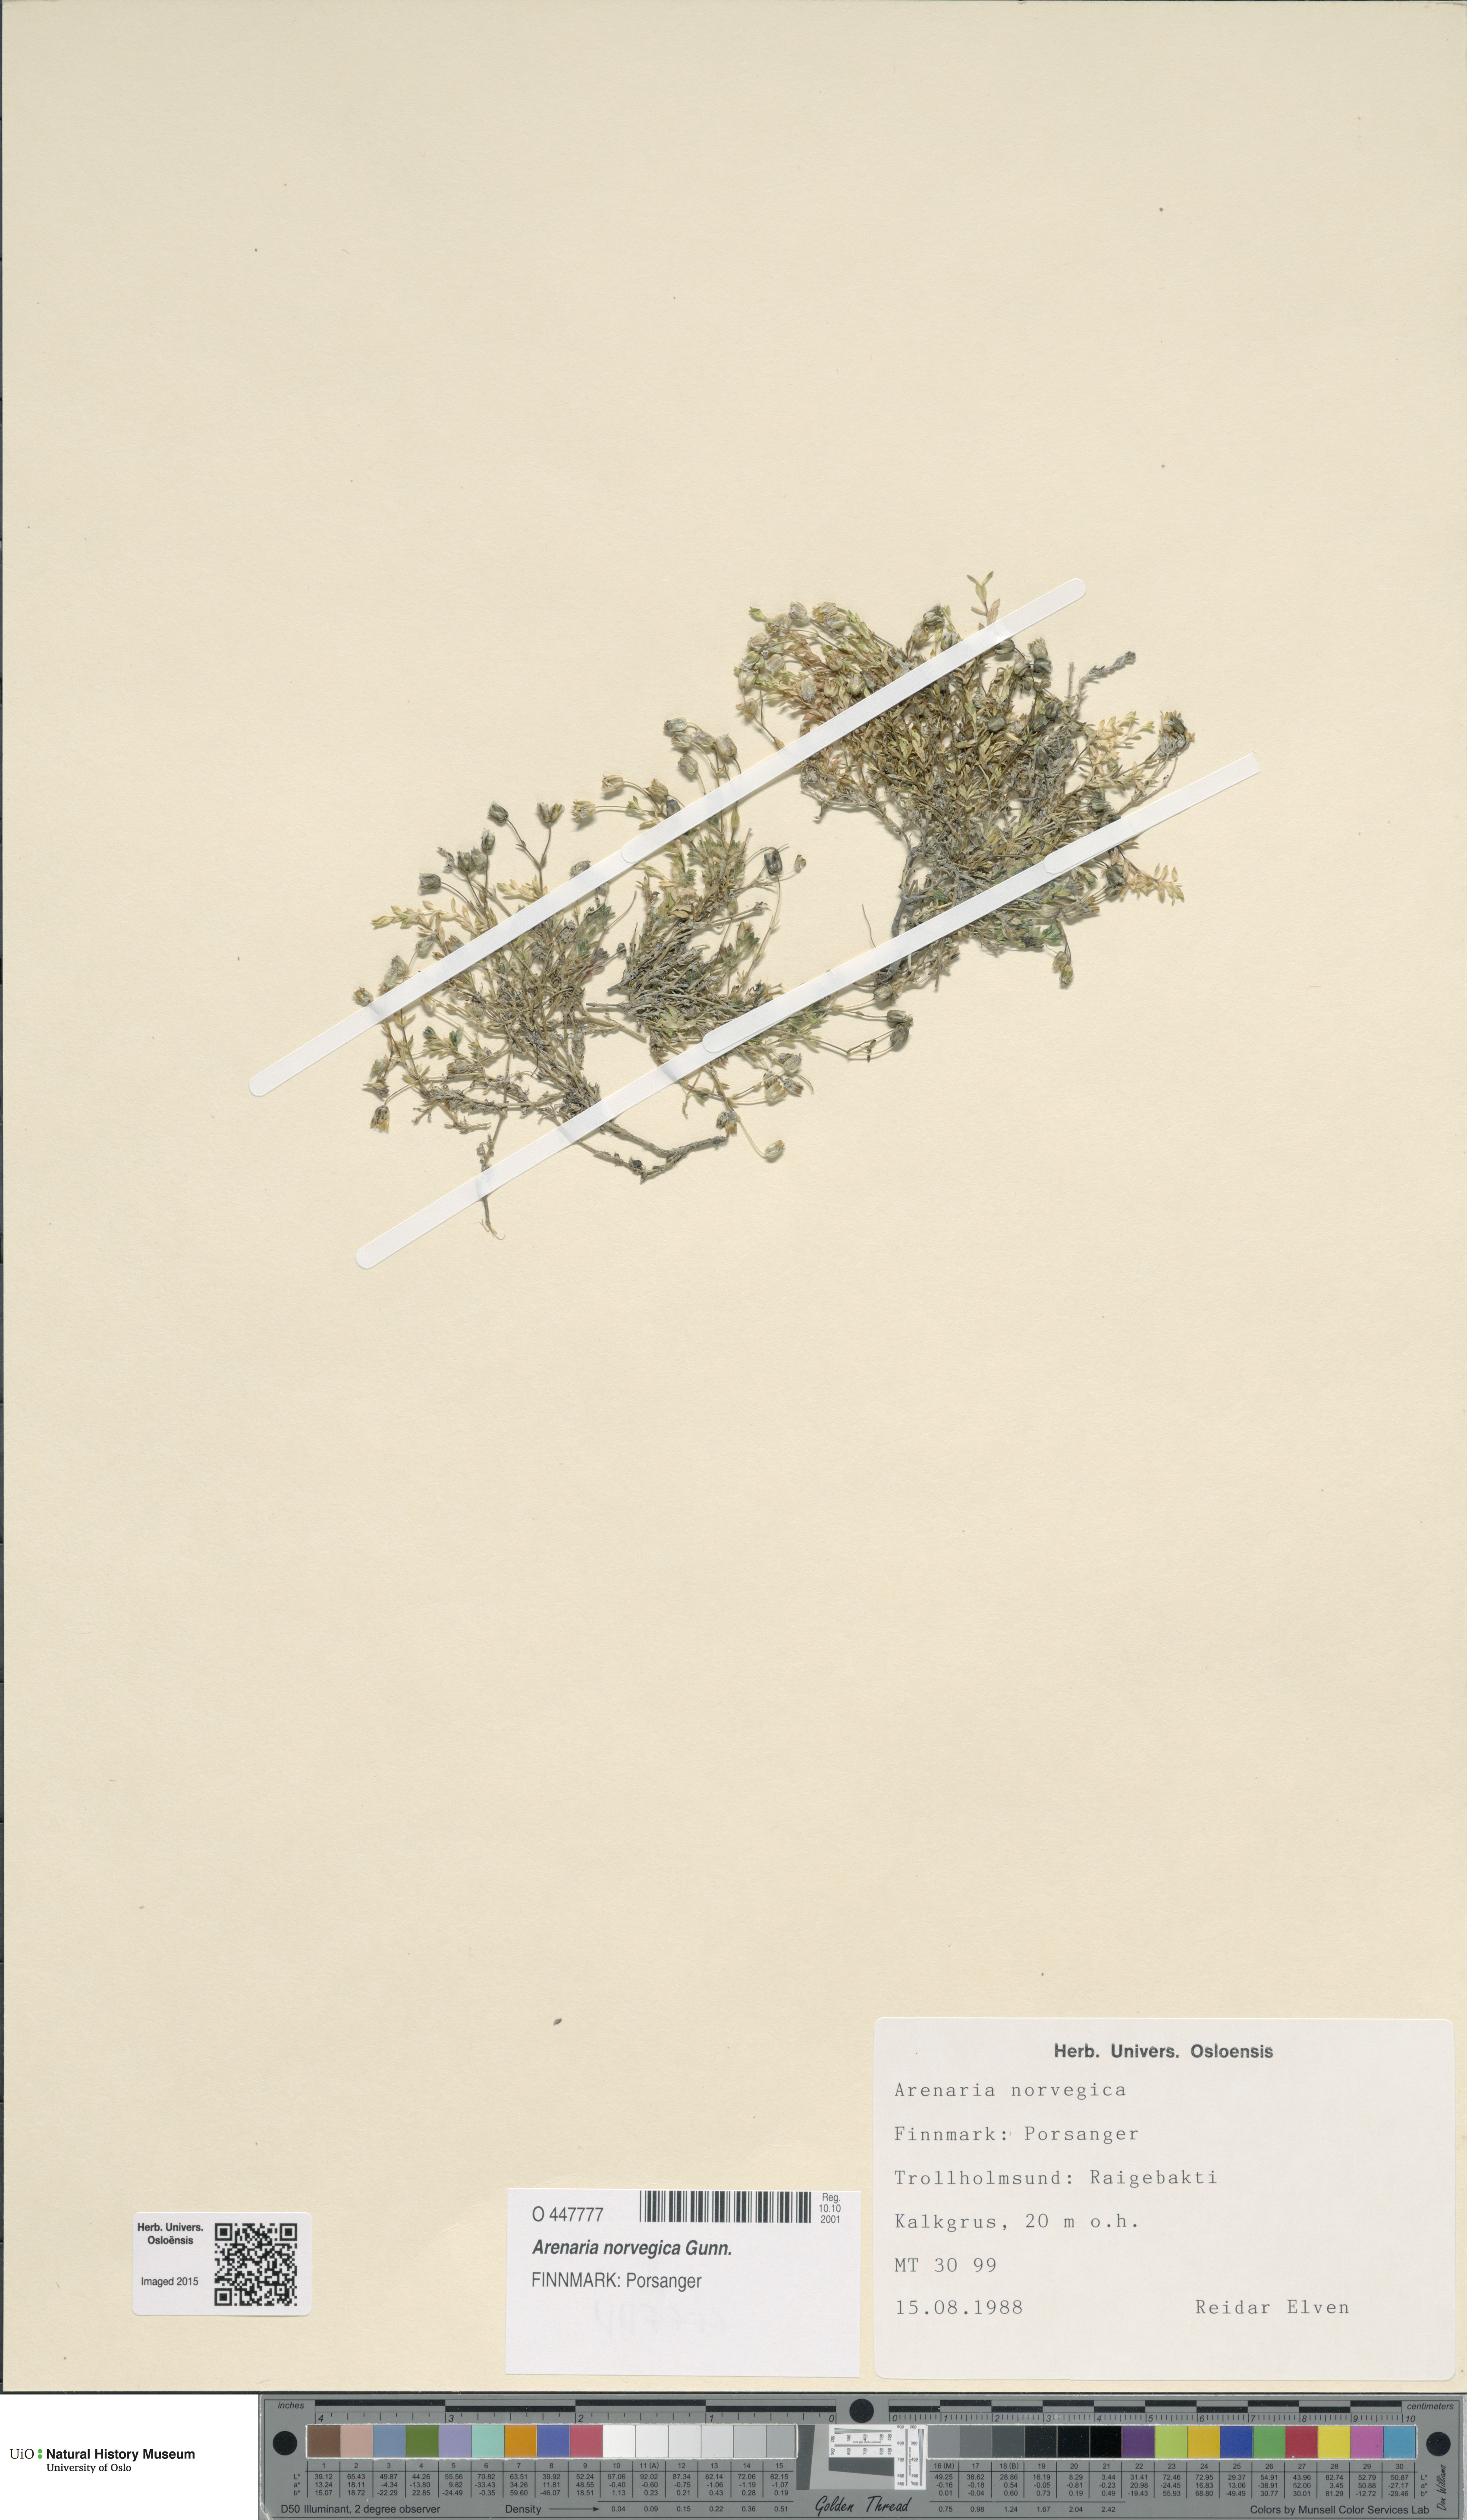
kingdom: Plantae
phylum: Tracheophyta
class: Magnoliopsida
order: Caryophyllales
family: Caryophyllaceae
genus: Arenaria
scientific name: Arenaria norvegica
